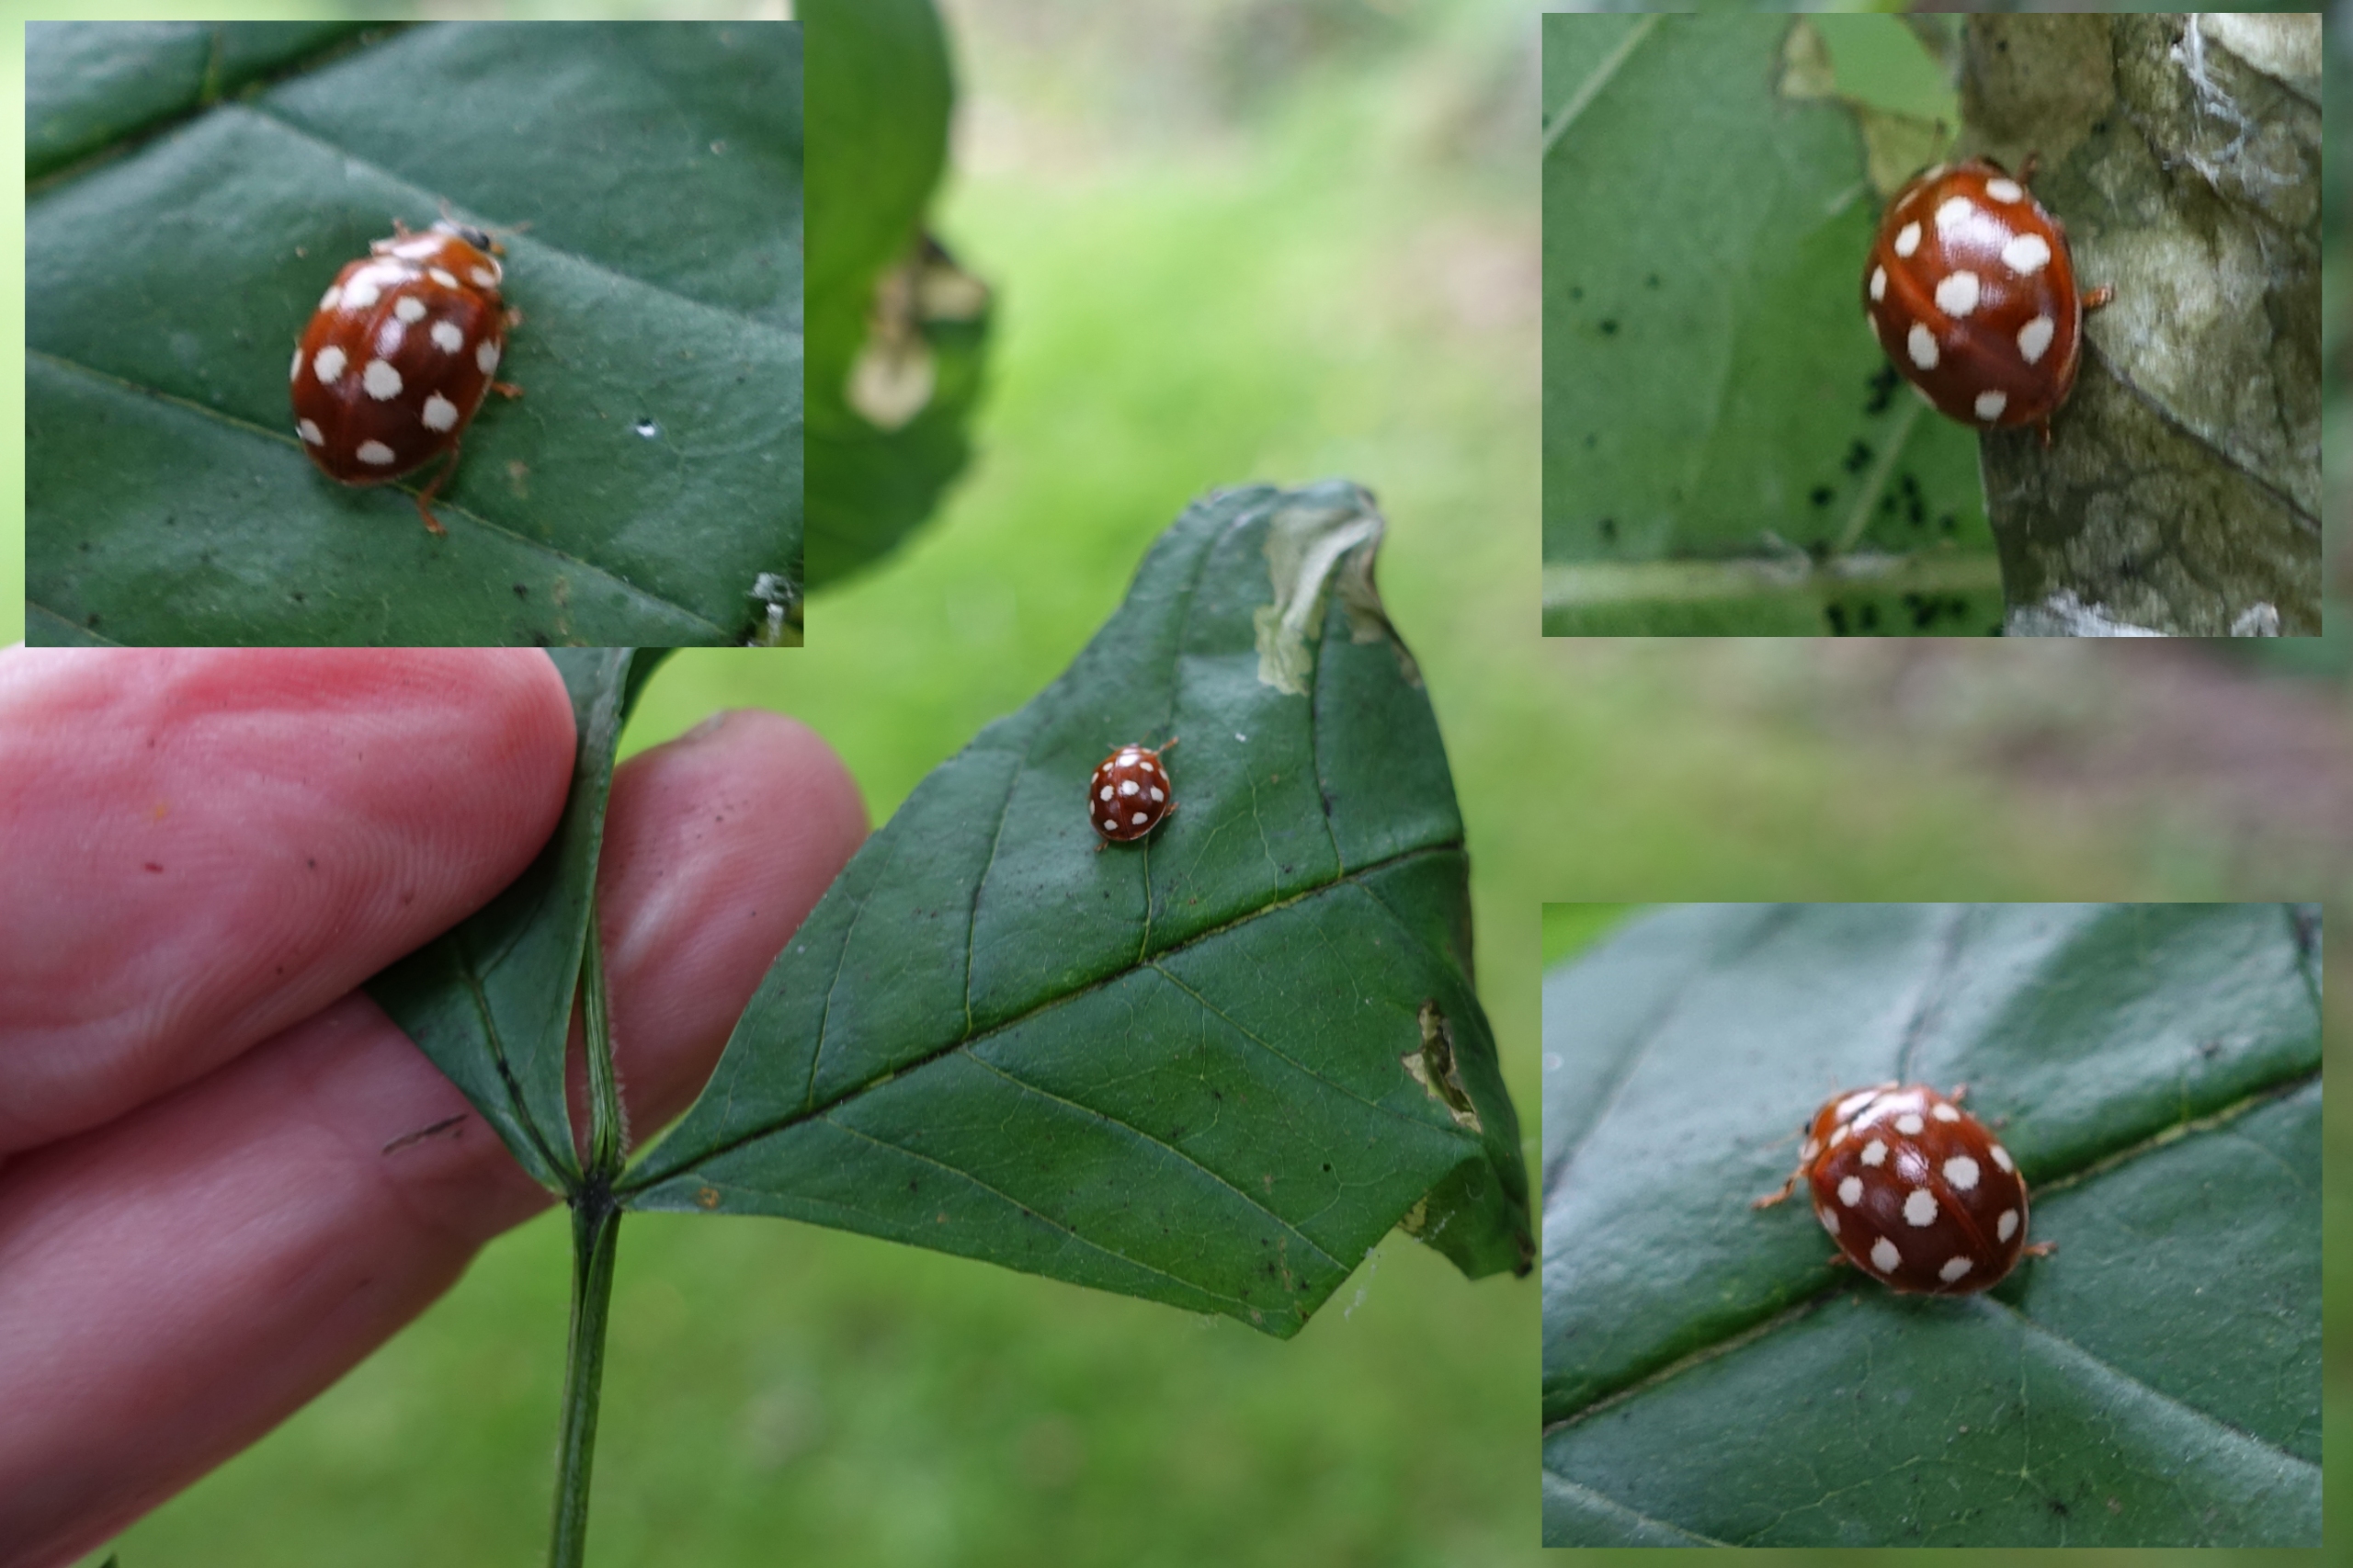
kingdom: Animalia
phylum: Arthropoda
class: Insecta
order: Coleoptera
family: Coccinellidae
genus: Calvia
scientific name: Calvia quatuordecimguttata
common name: Fjortenplettet mariehøne
